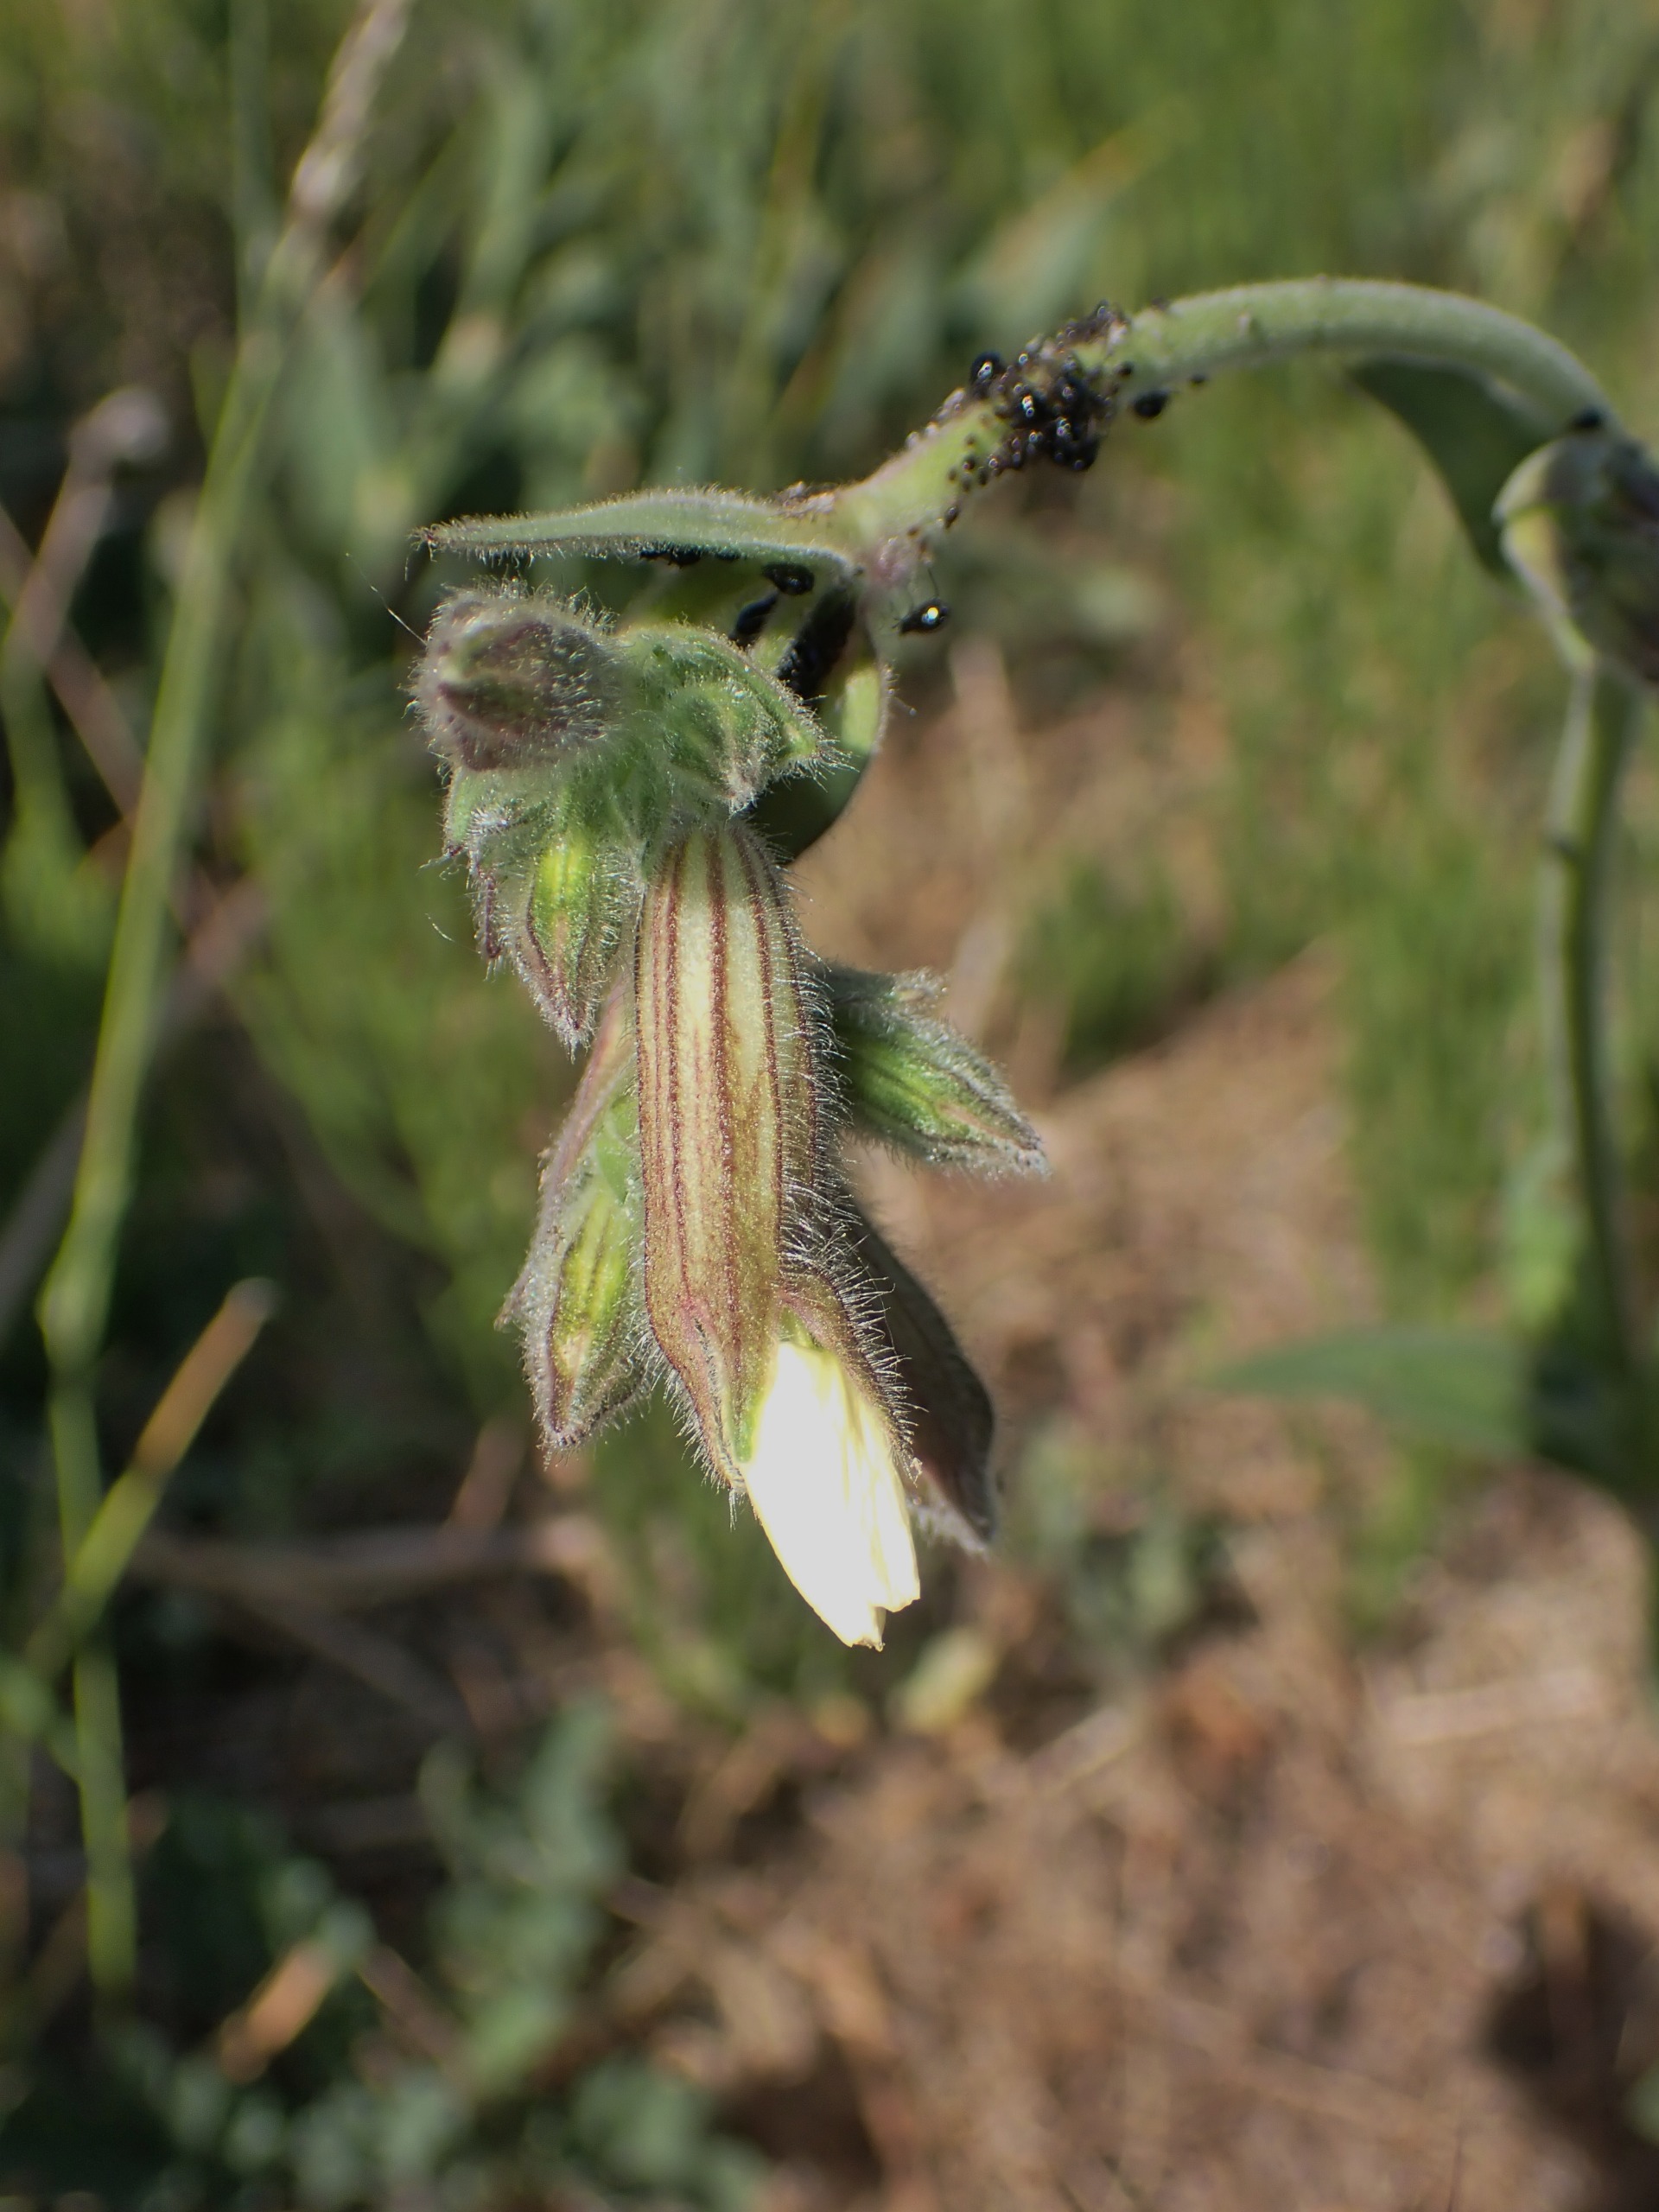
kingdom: Plantae
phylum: Tracheophyta
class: Magnoliopsida
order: Caryophyllales
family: Caryophyllaceae
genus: Silene
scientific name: Silene latifolia
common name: Aftenpragtstjerne
